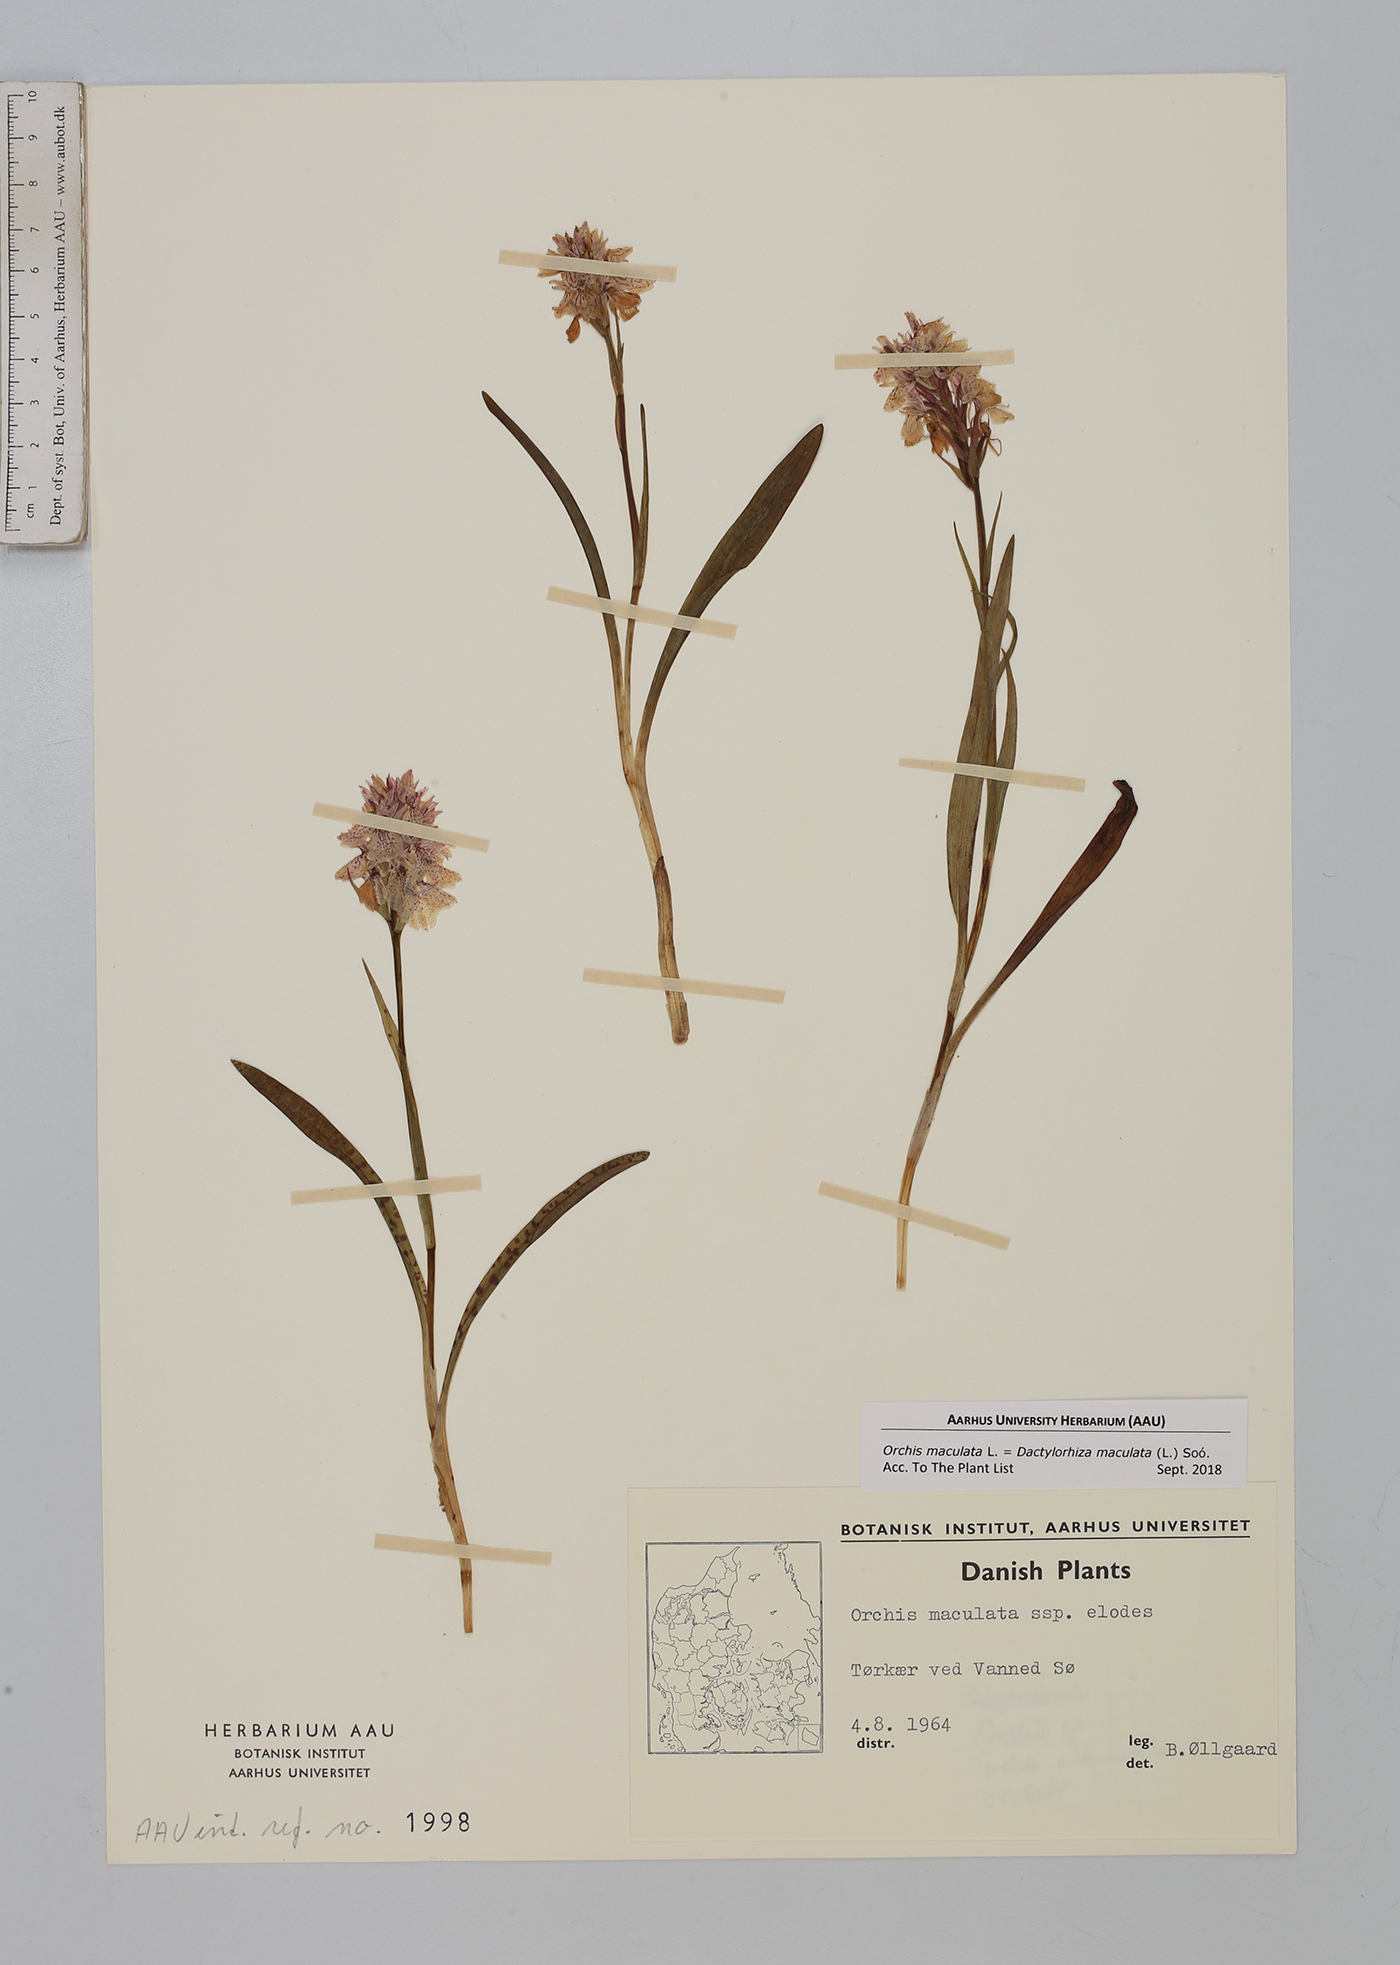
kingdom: Plantae
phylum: Tracheophyta
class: Liliopsida
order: Asparagales
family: Orchidaceae
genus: Dactylorhiza
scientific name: Dactylorhiza maculata
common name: Heath spotted-orchid
